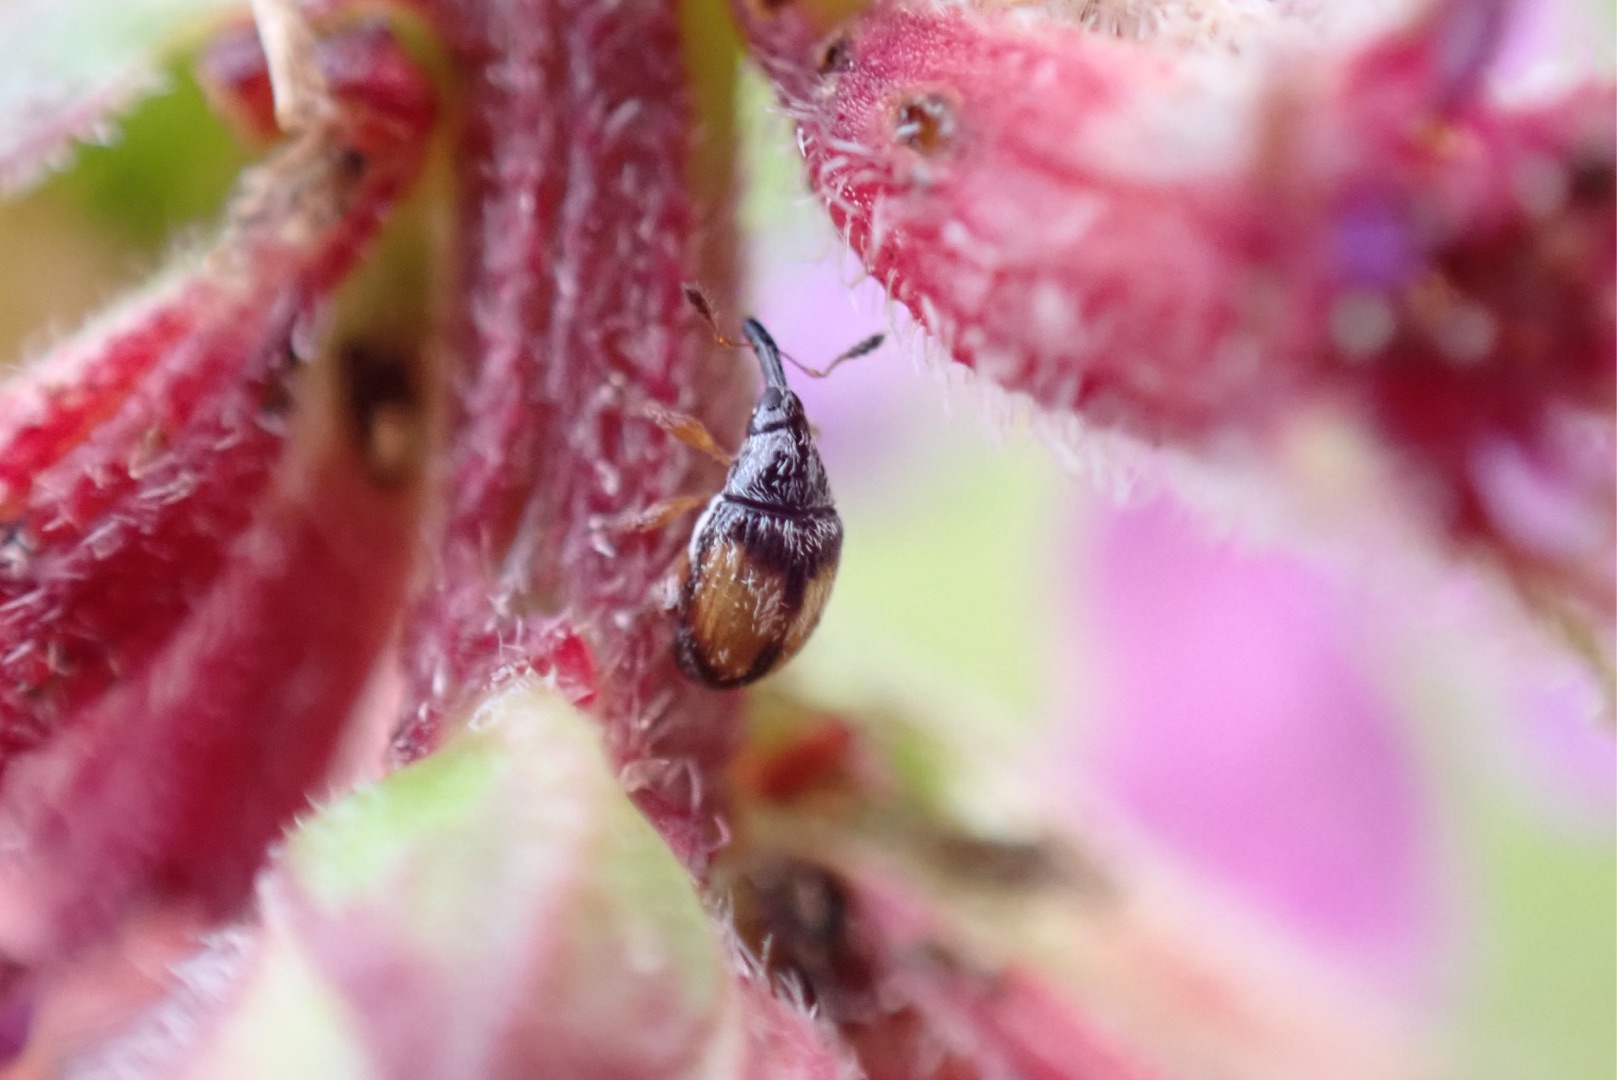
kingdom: Animalia
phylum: Arthropoda
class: Insecta
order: Coleoptera
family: Brentidae
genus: Nanophyes
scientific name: Nanophyes marmoratus
